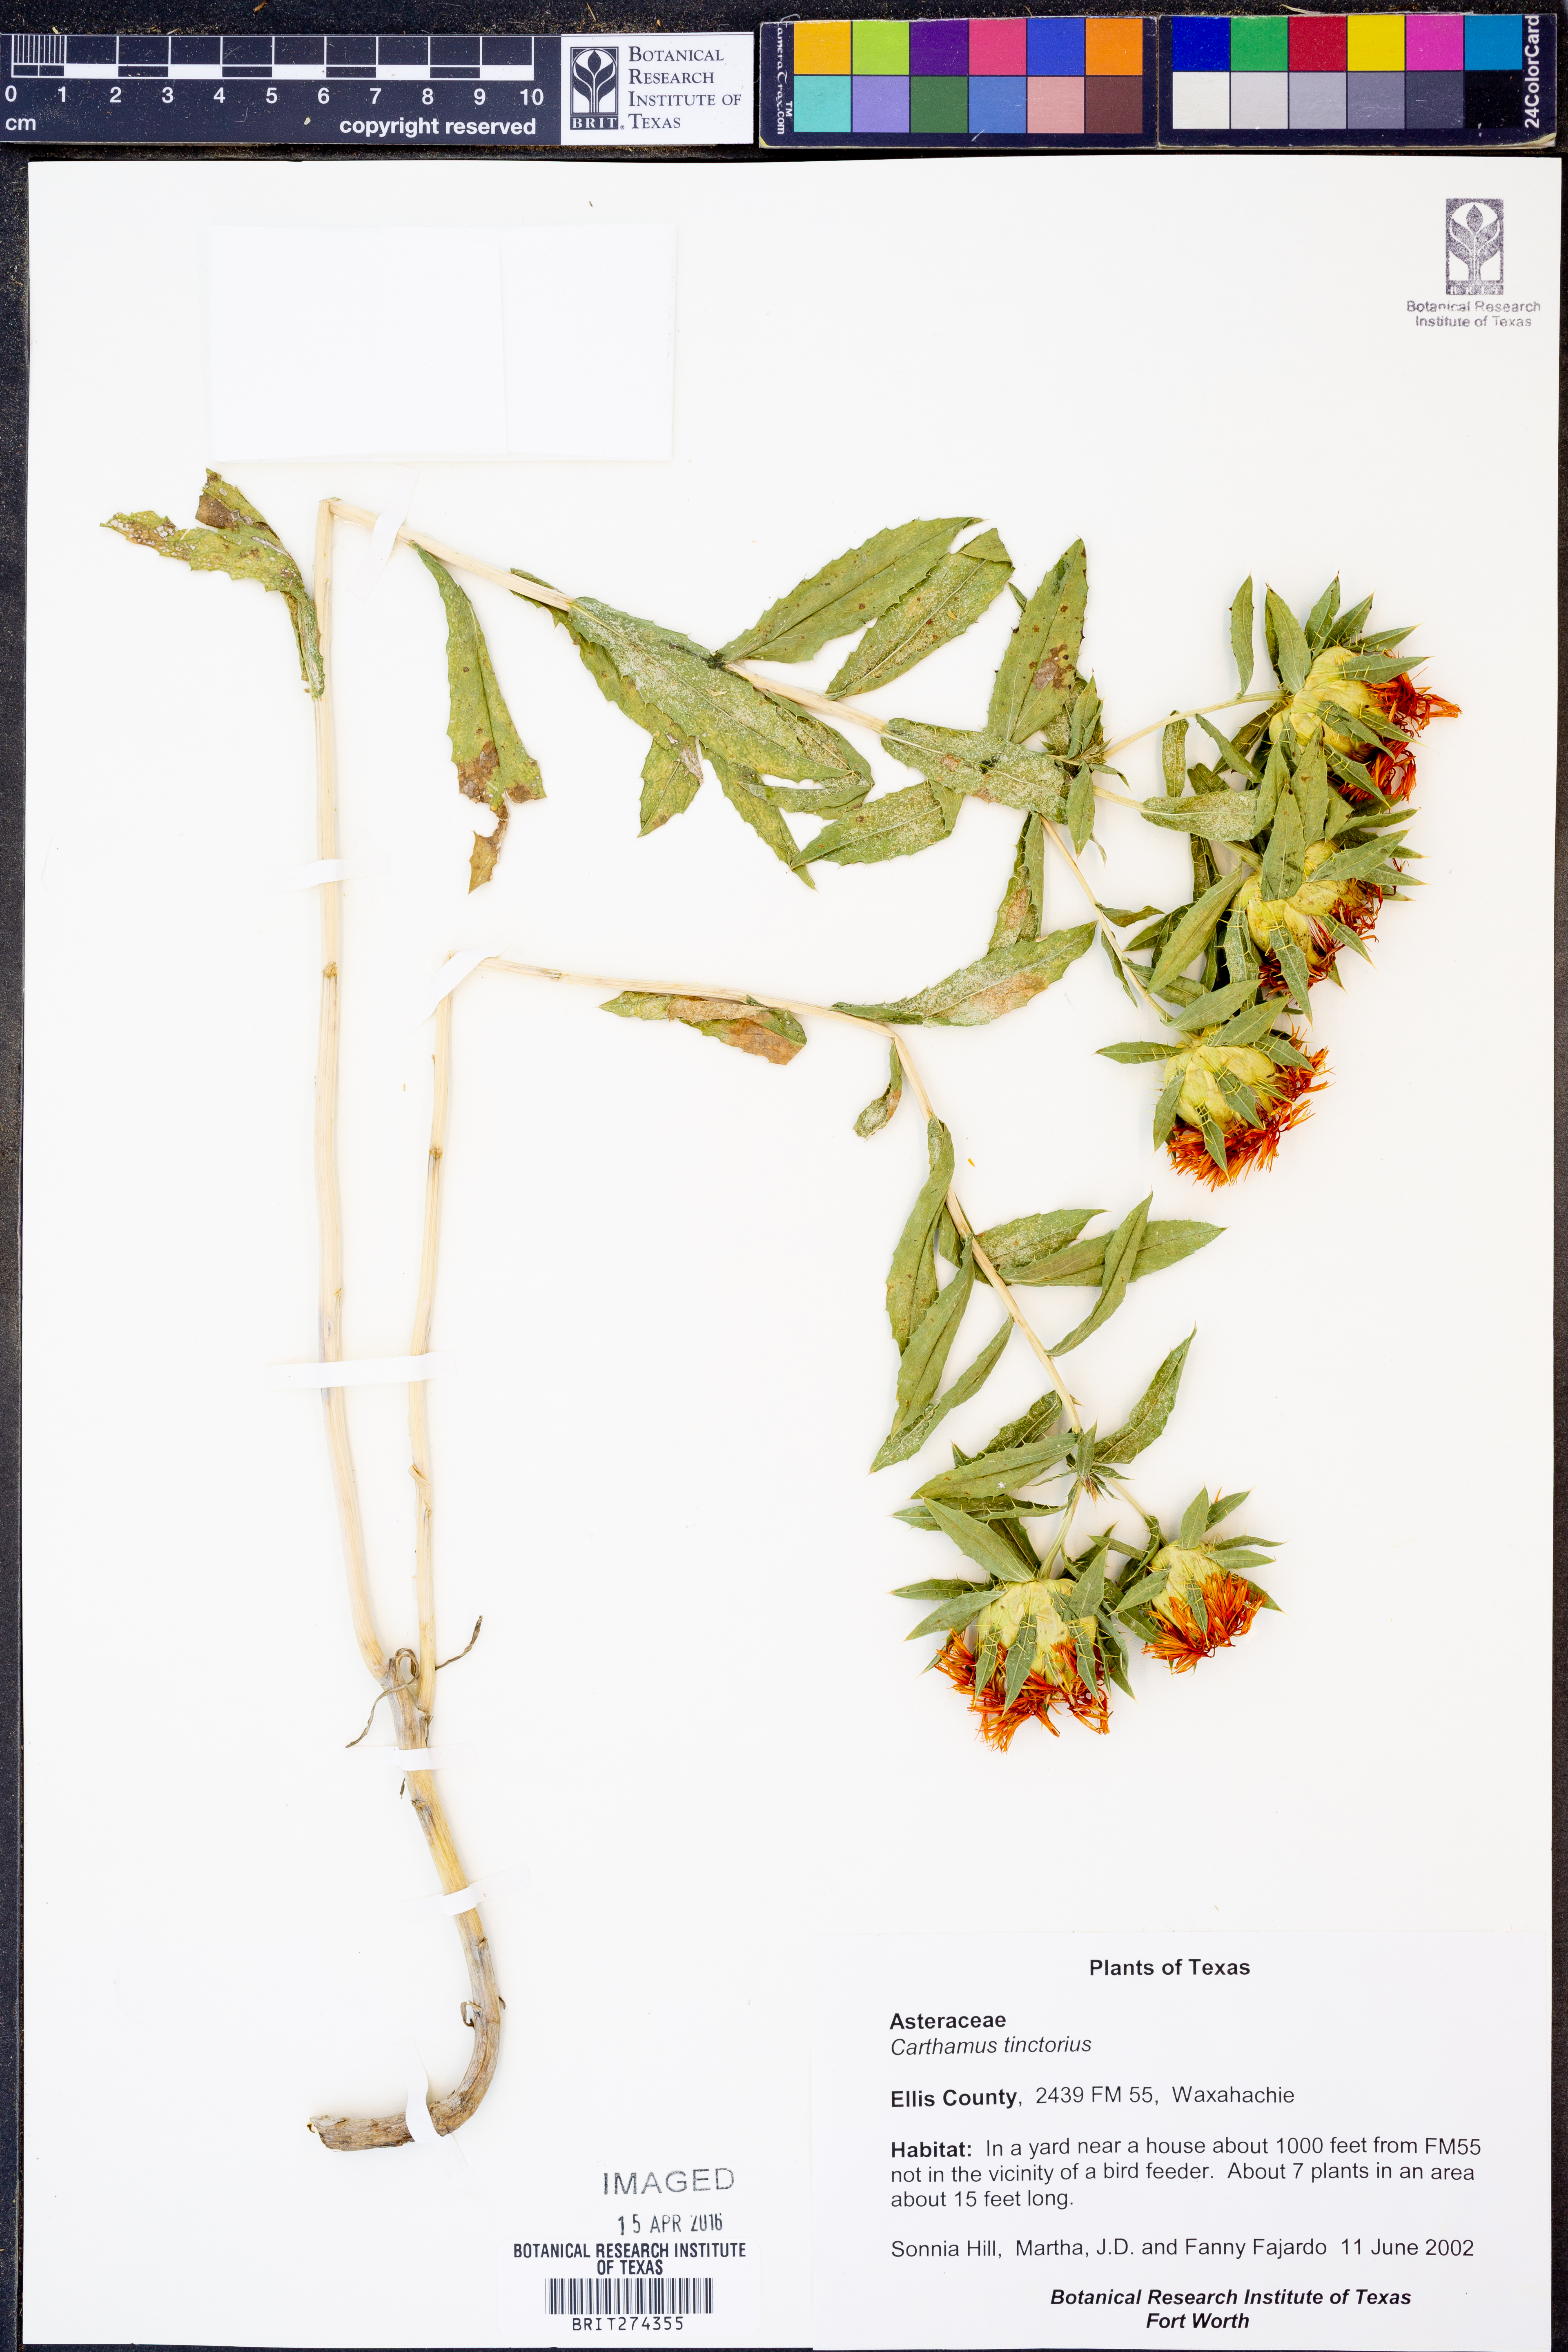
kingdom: Plantae
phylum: Tracheophyta
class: Magnoliopsida
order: Asterales
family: Asteraceae
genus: Carthamus
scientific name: Carthamus tinctorius
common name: Safflower
